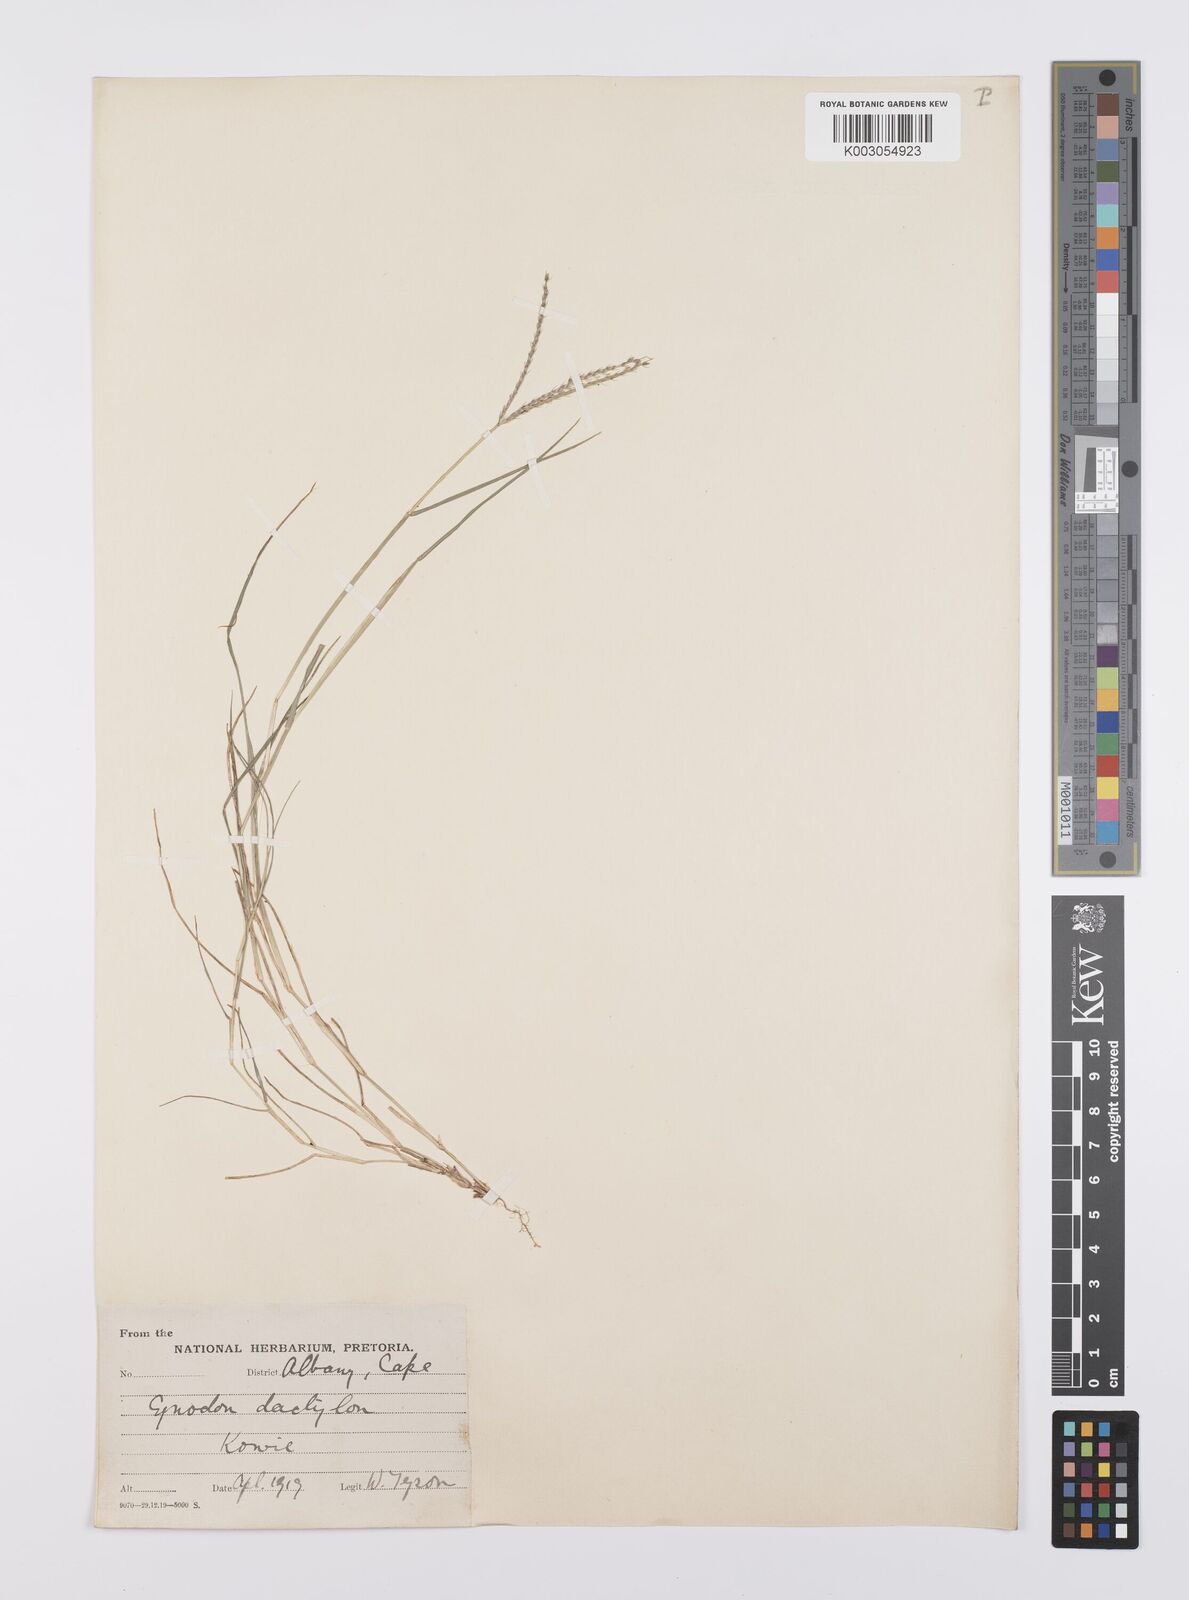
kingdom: Plantae
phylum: Tracheophyta
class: Liliopsida
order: Poales
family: Poaceae
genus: Cynodon
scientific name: Cynodon dactylon
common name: Bermuda grass
